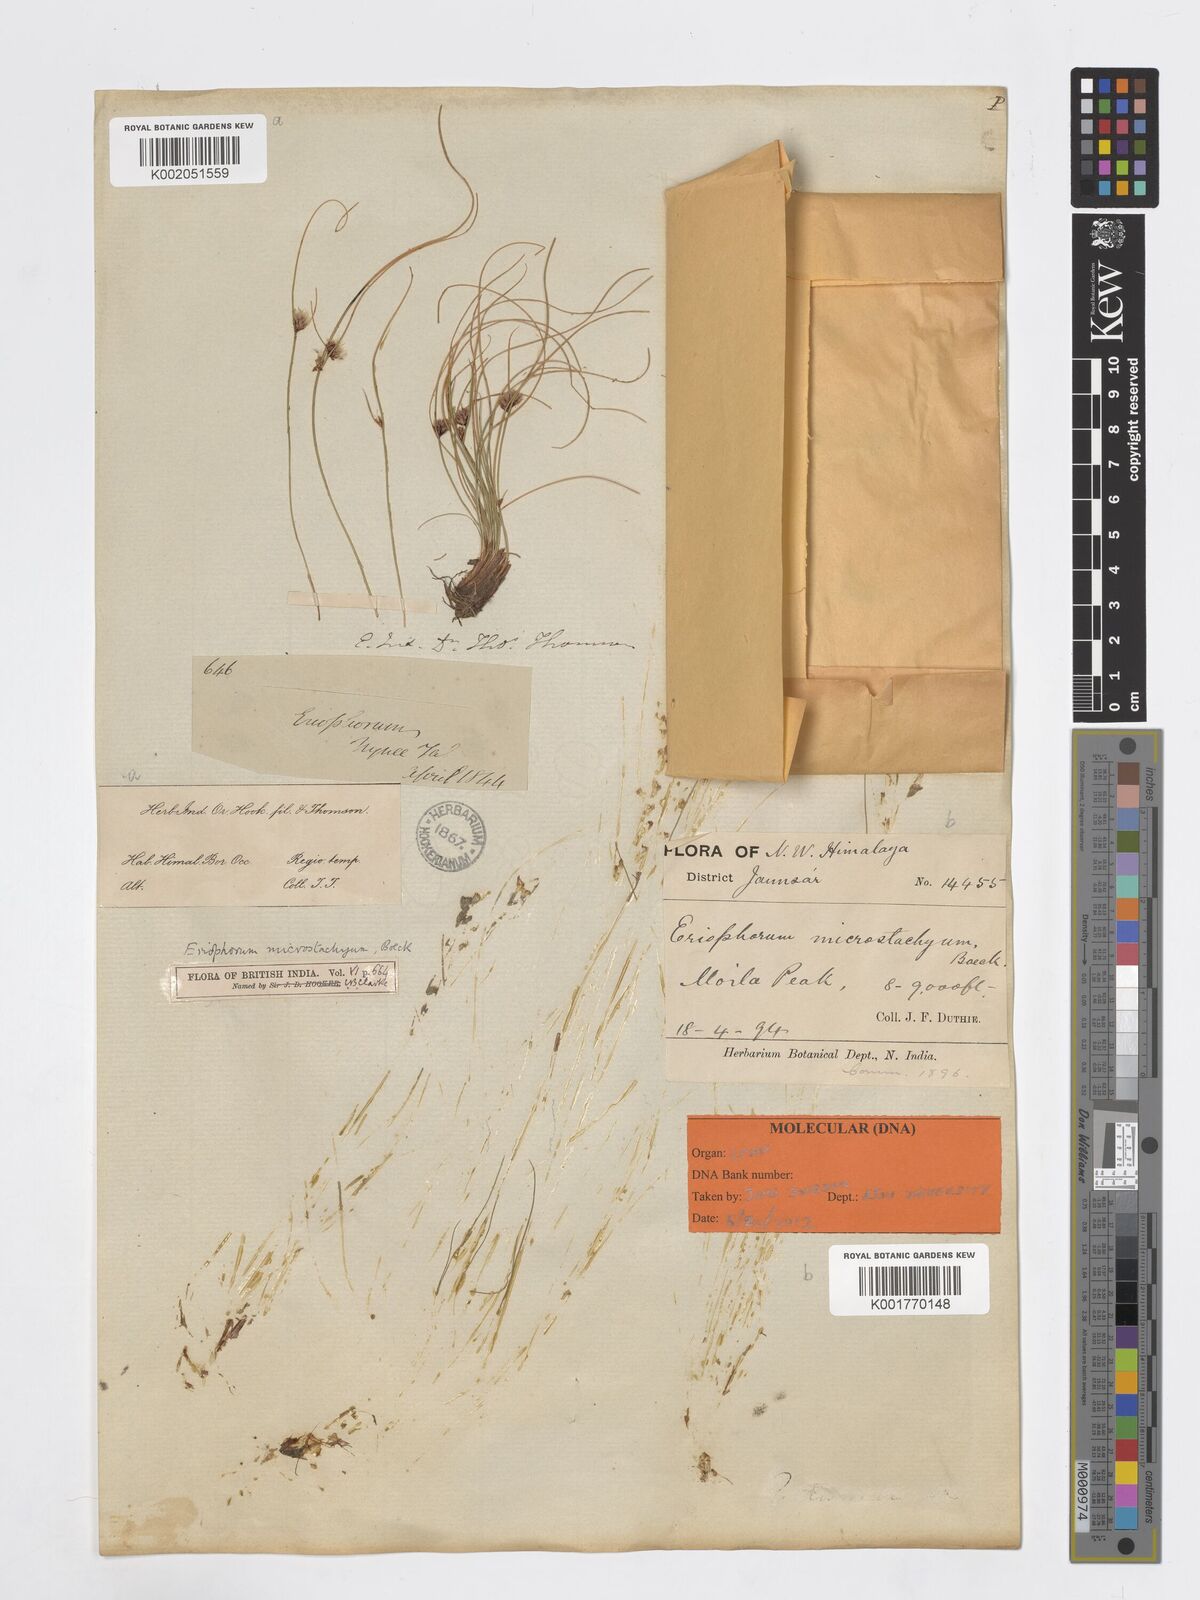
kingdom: Plantae
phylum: Tracheophyta
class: Liliopsida
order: Poales
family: Cyperaceae
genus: Erioscirpus
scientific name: Erioscirpus microstachyus
